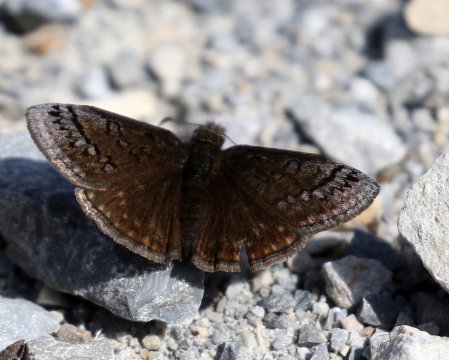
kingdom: Animalia
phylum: Arthropoda
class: Insecta
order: Lepidoptera
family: Hesperiidae
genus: Erynnis
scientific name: Erynnis brizo
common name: Sleepy Duskywing
